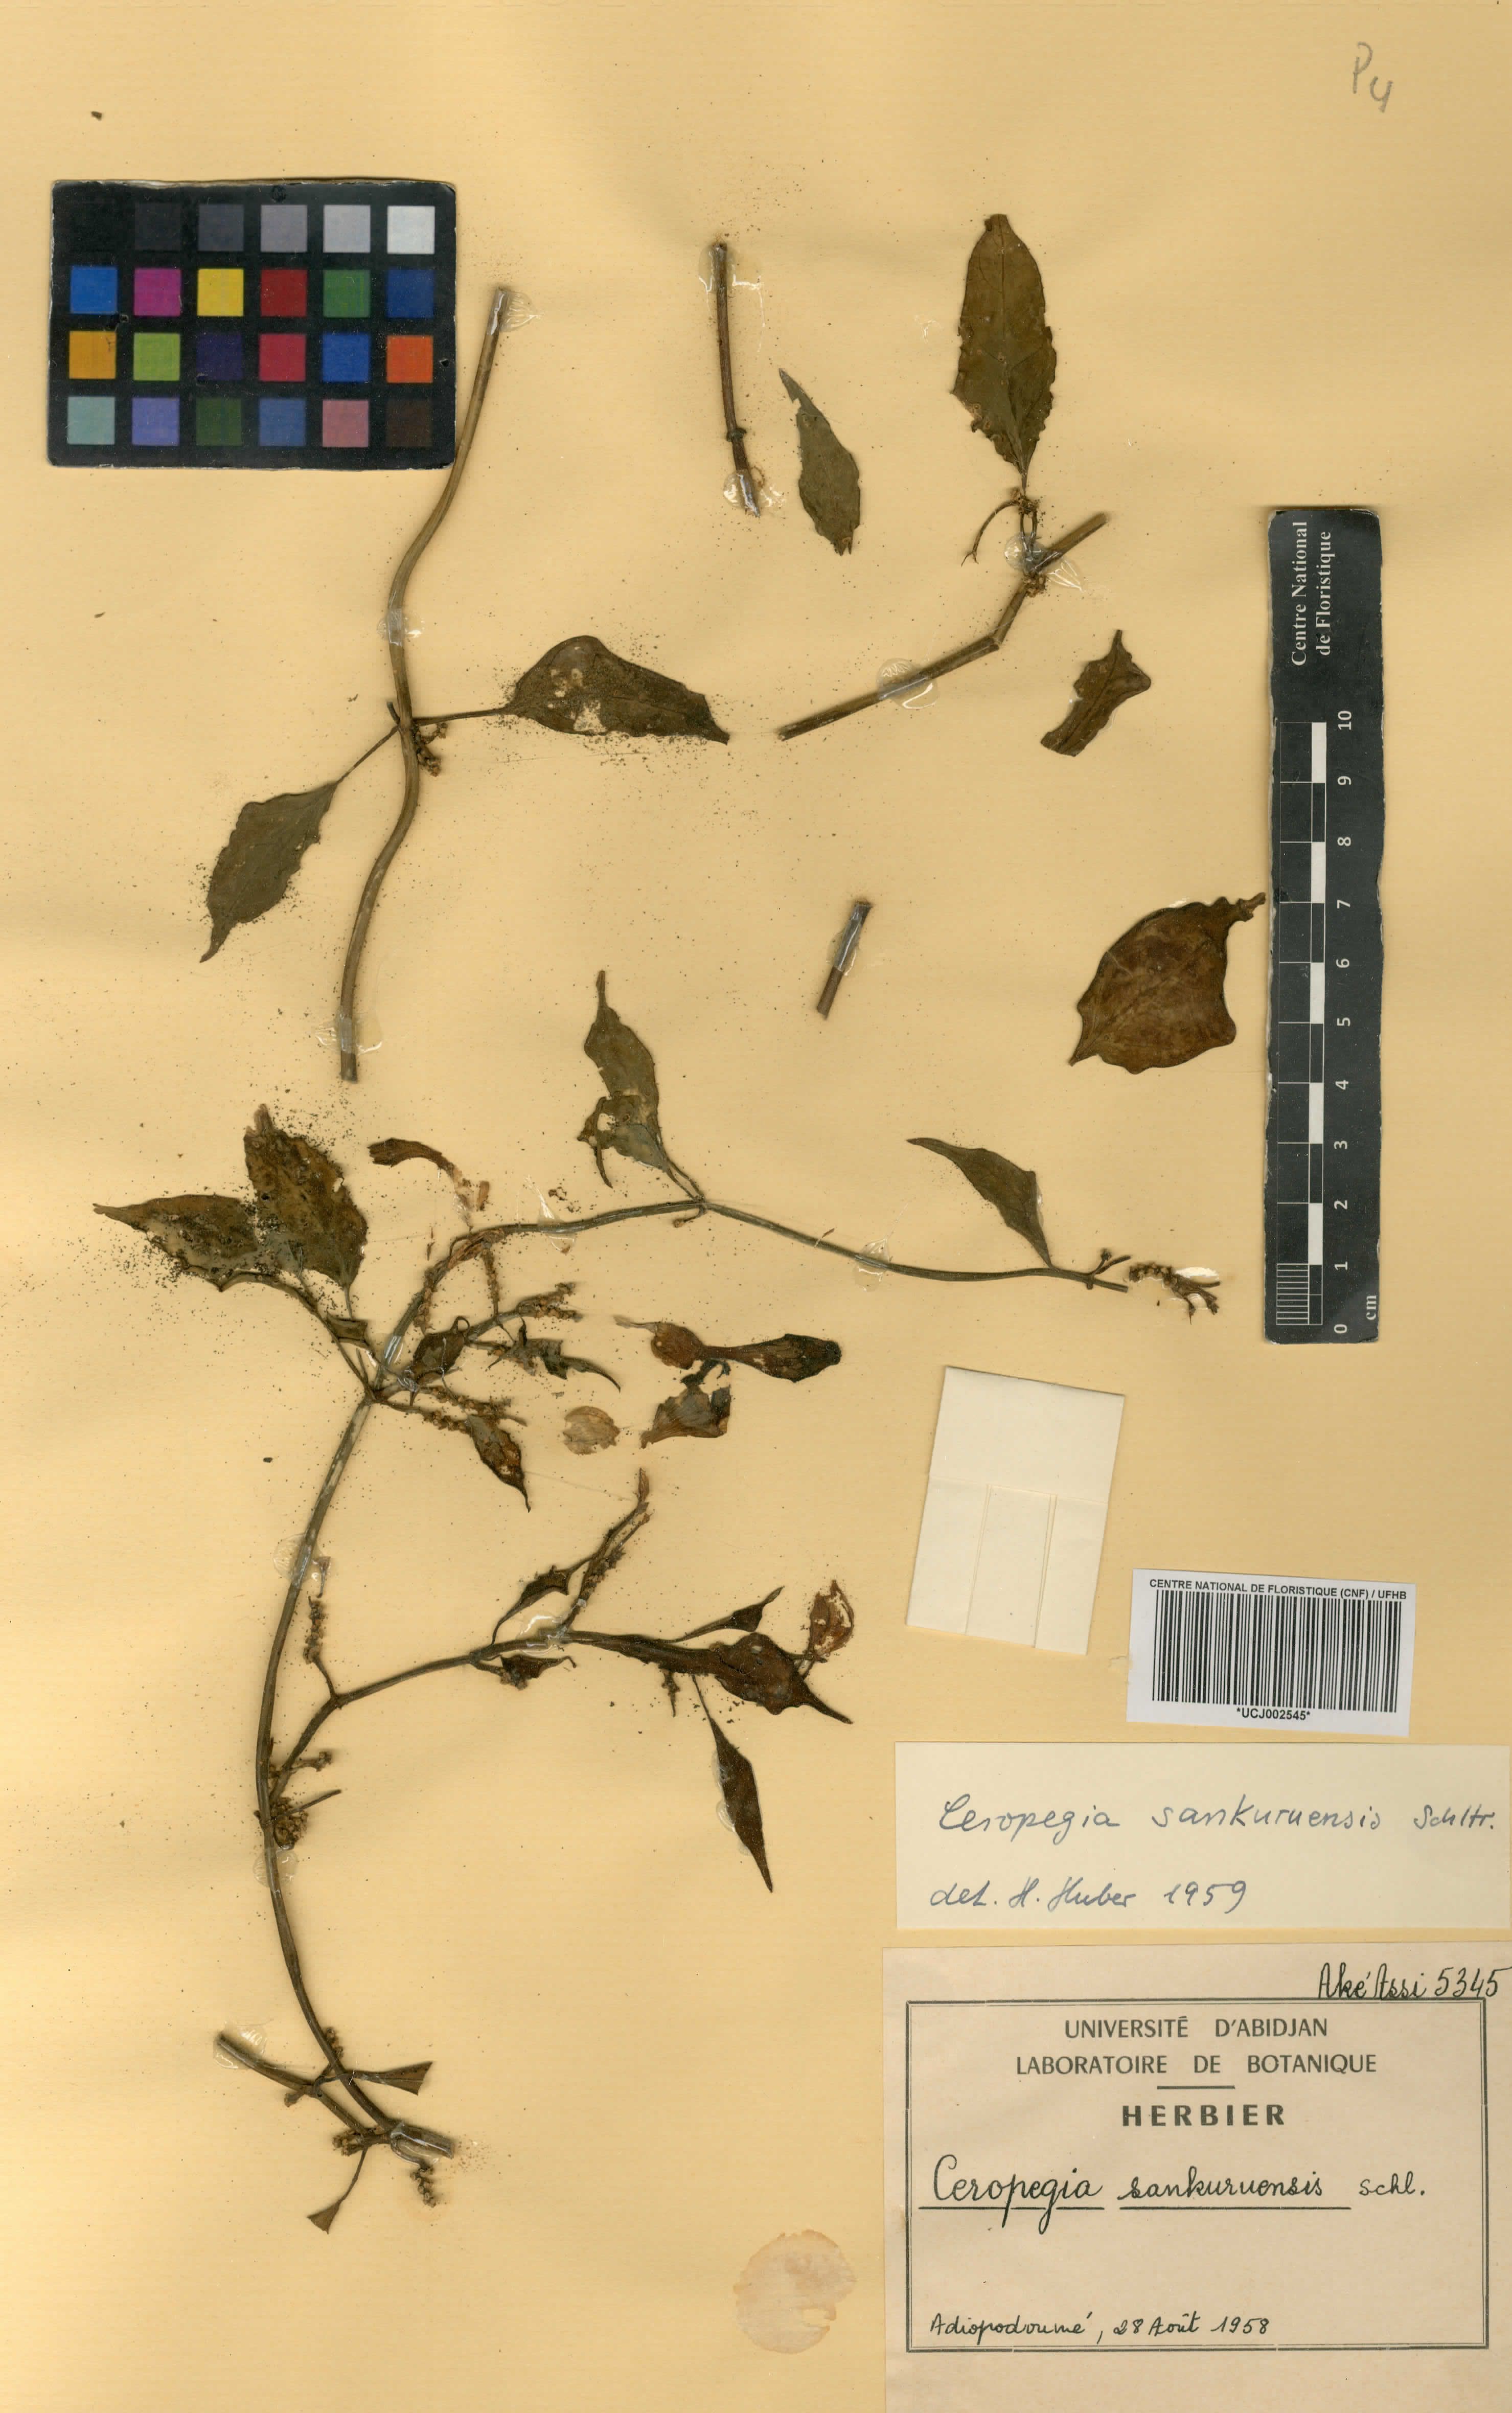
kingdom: Plantae
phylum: Tracheophyta
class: Magnoliopsida
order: Gentianales
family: Apocynaceae
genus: Ceropegia
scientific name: Ceropegia sankuruensis
